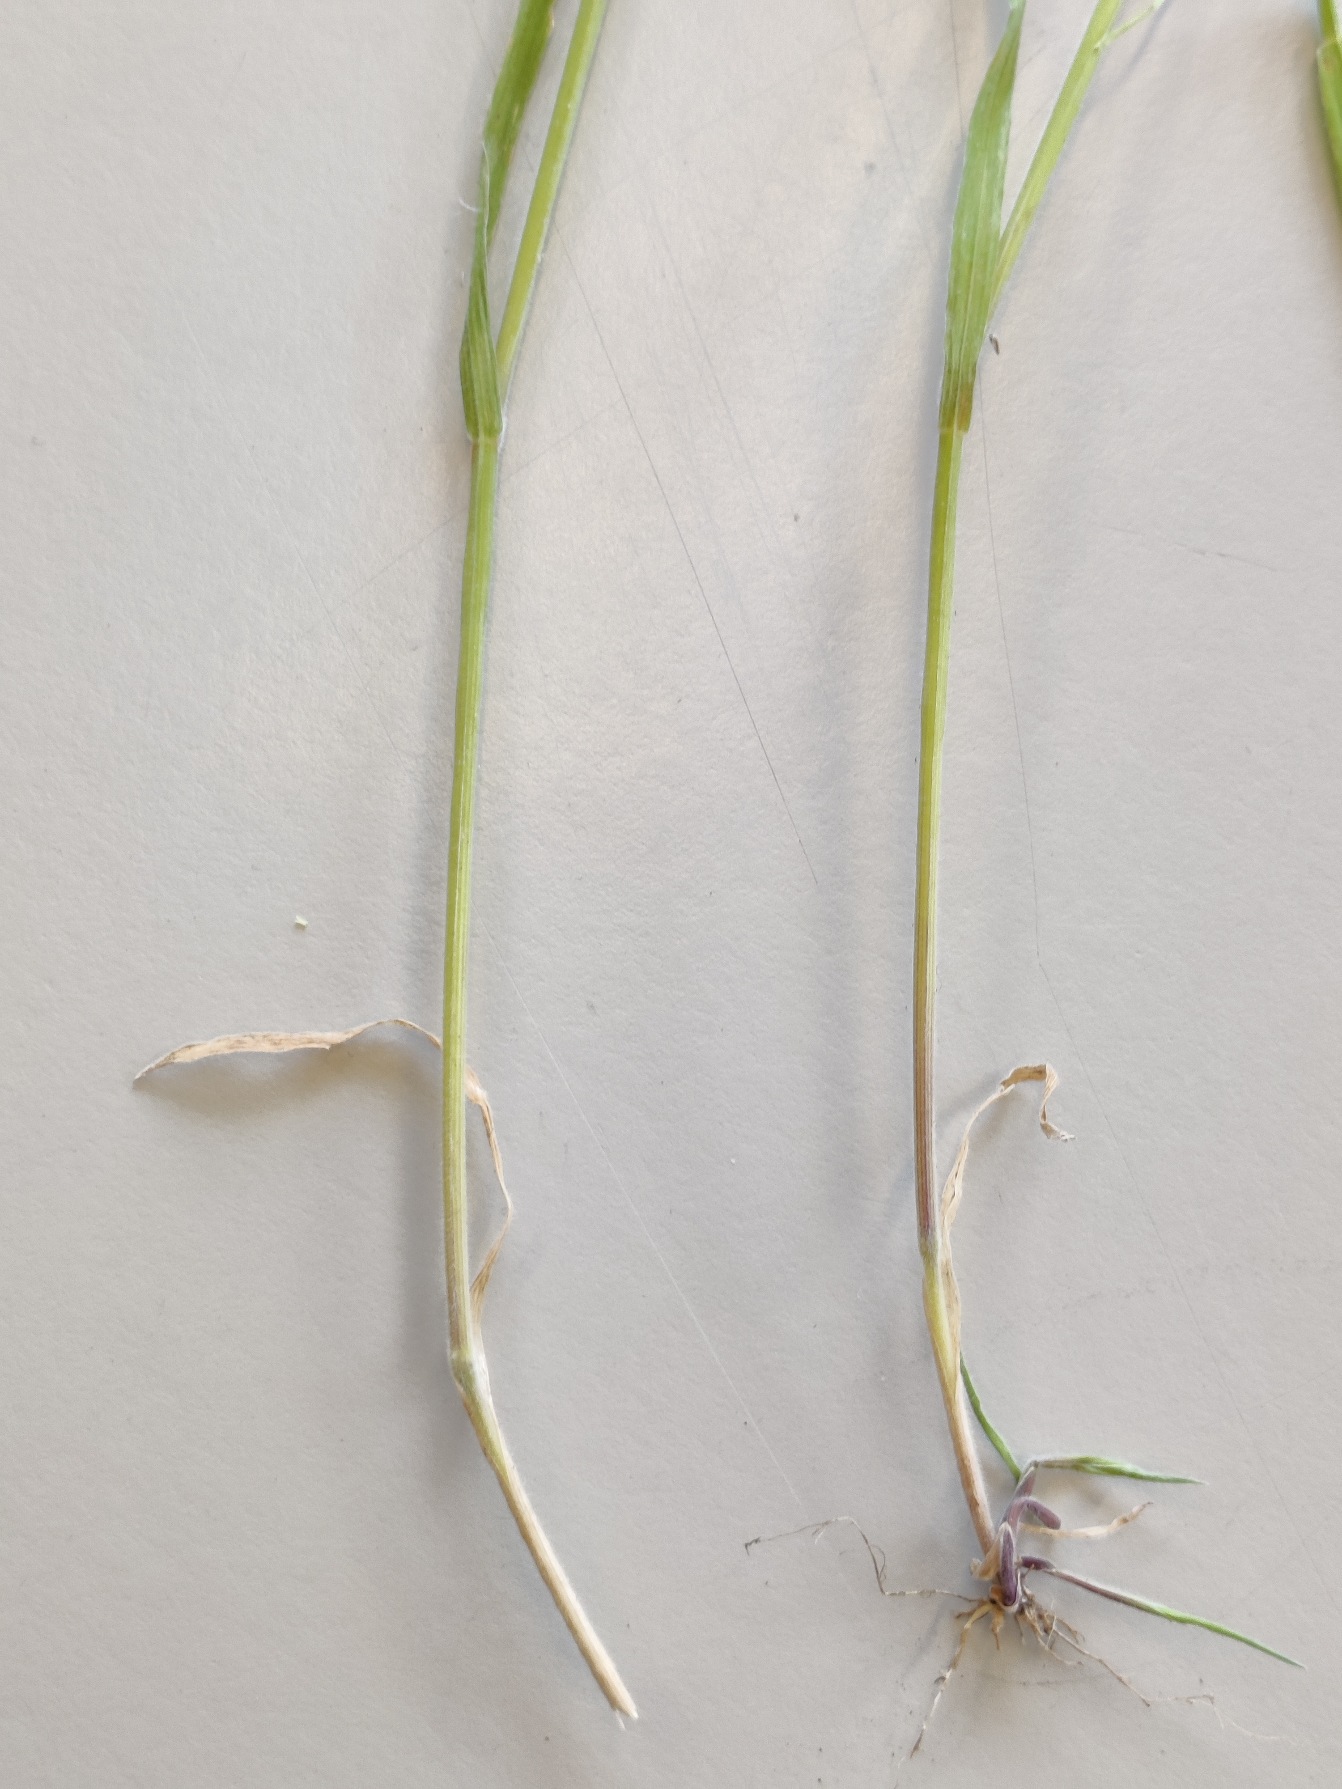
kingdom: Plantae
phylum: Tracheophyta
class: Liliopsida
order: Poales
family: Poaceae
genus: Holcus
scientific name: Holcus lanatus
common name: Fløjlsgræs
